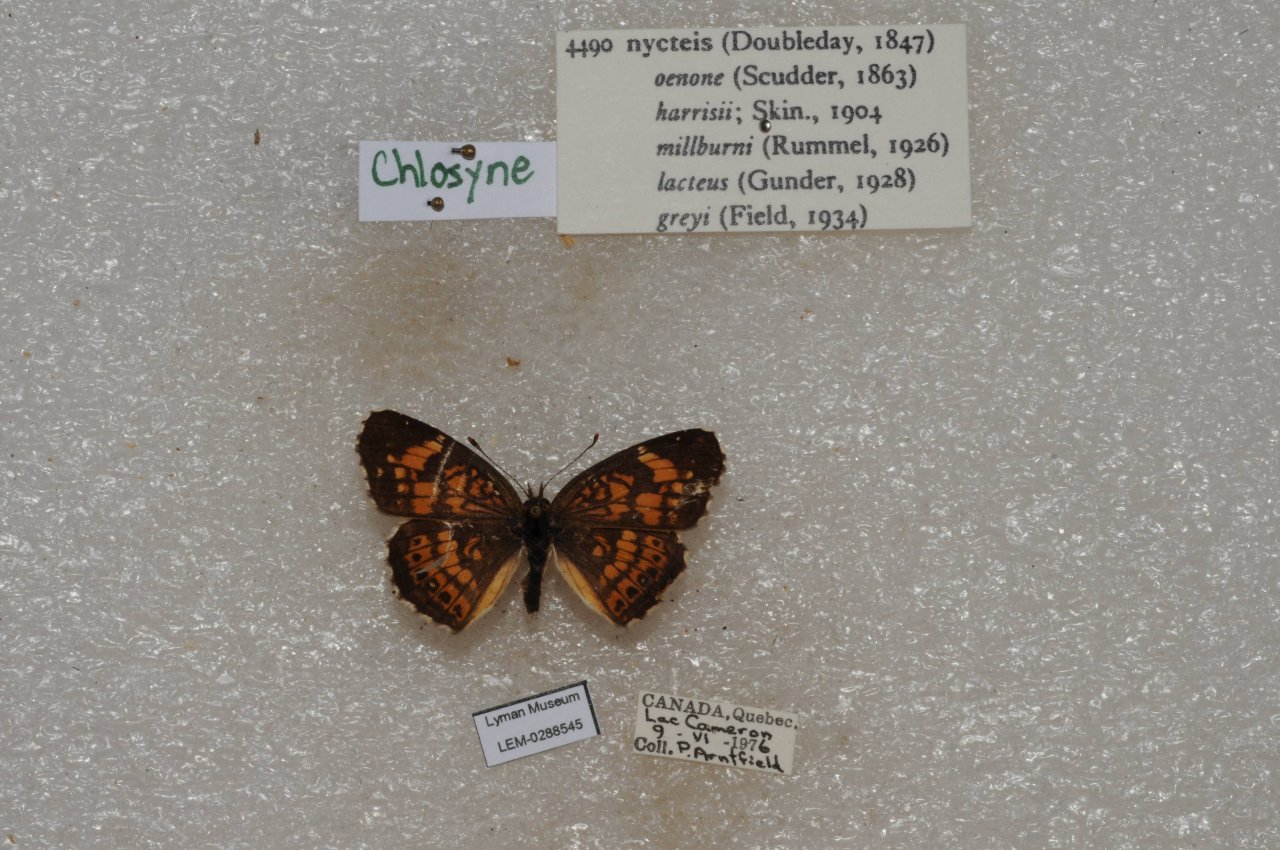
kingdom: Animalia
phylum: Arthropoda
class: Insecta
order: Lepidoptera
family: Nymphalidae
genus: Chlosyne
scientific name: Chlosyne nycteis
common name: Silvery Checkerspot
